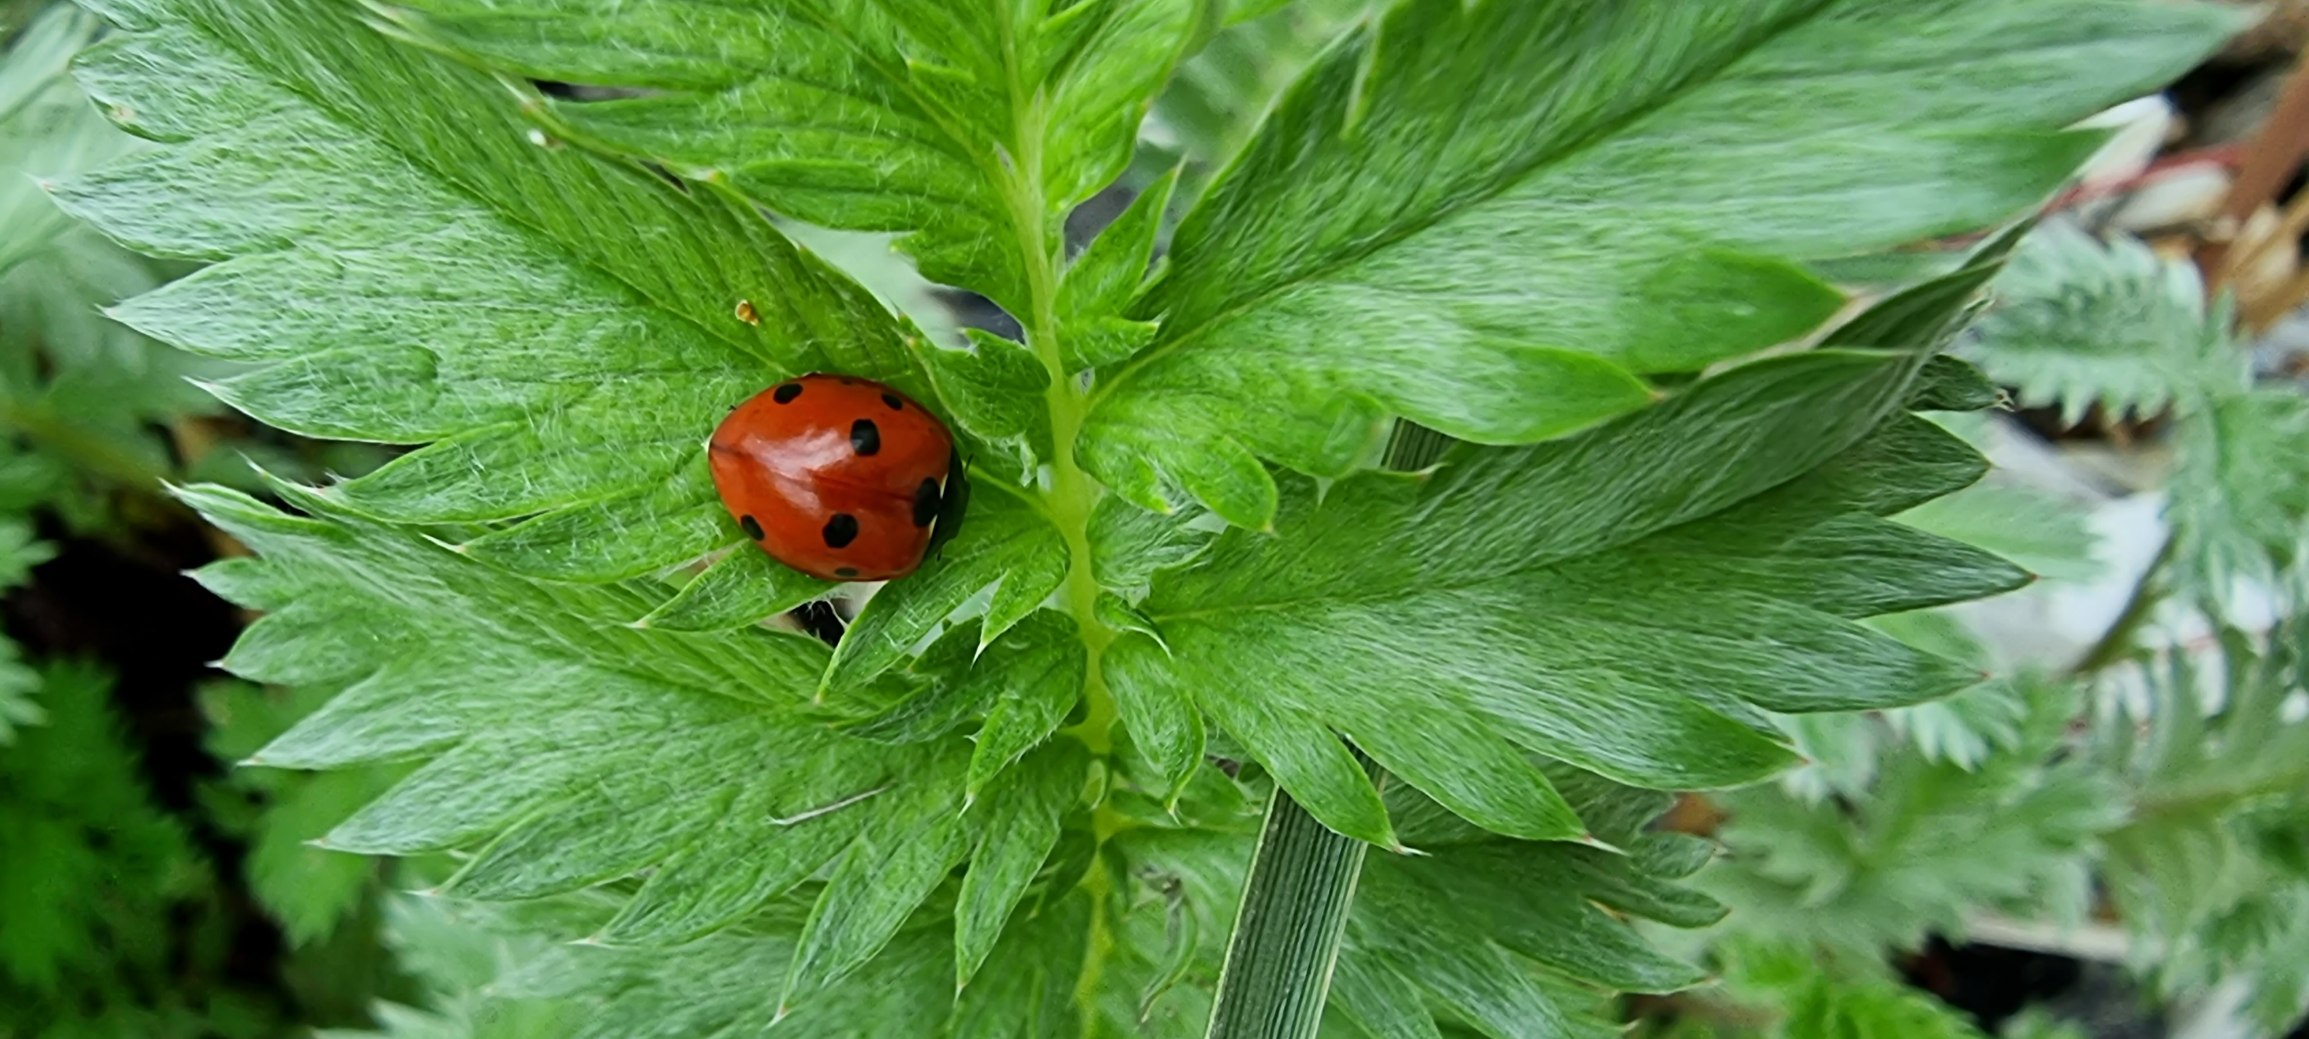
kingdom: Animalia
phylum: Arthropoda
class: Insecta
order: Coleoptera
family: Coccinellidae
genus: Coccinella
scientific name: Coccinella septempunctata
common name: Syvplettet mariehøne
